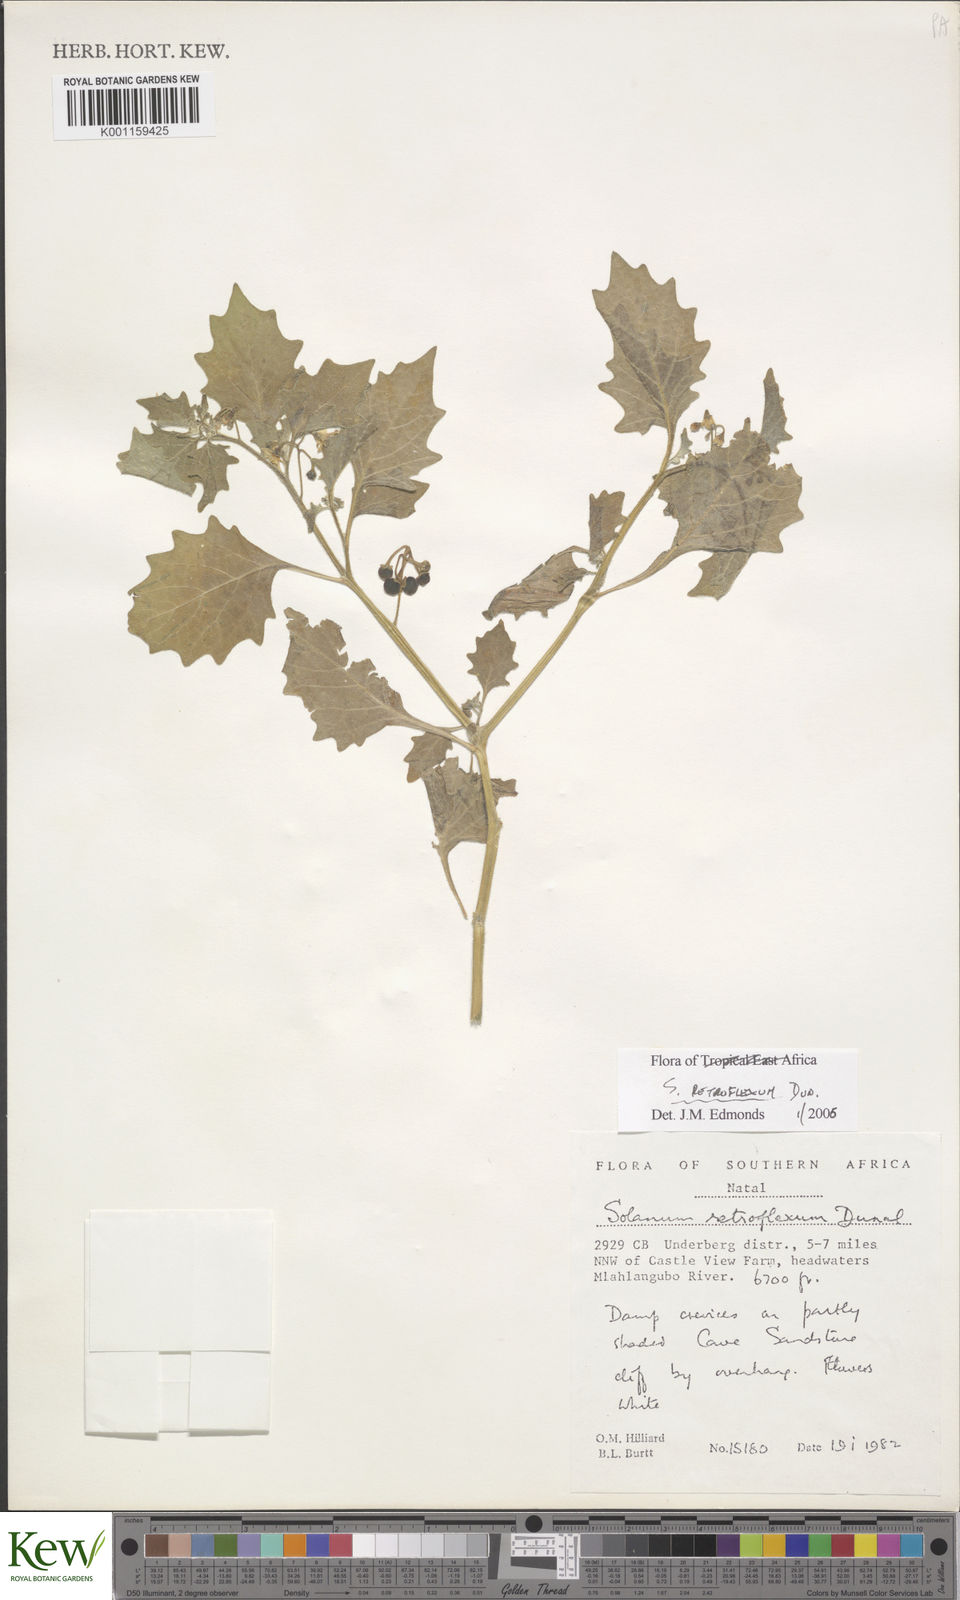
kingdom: Plantae
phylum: Tracheophyta
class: Magnoliopsida
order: Solanales
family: Solanaceae
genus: Solanum
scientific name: Solanum retroflexum
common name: Wonderberry
